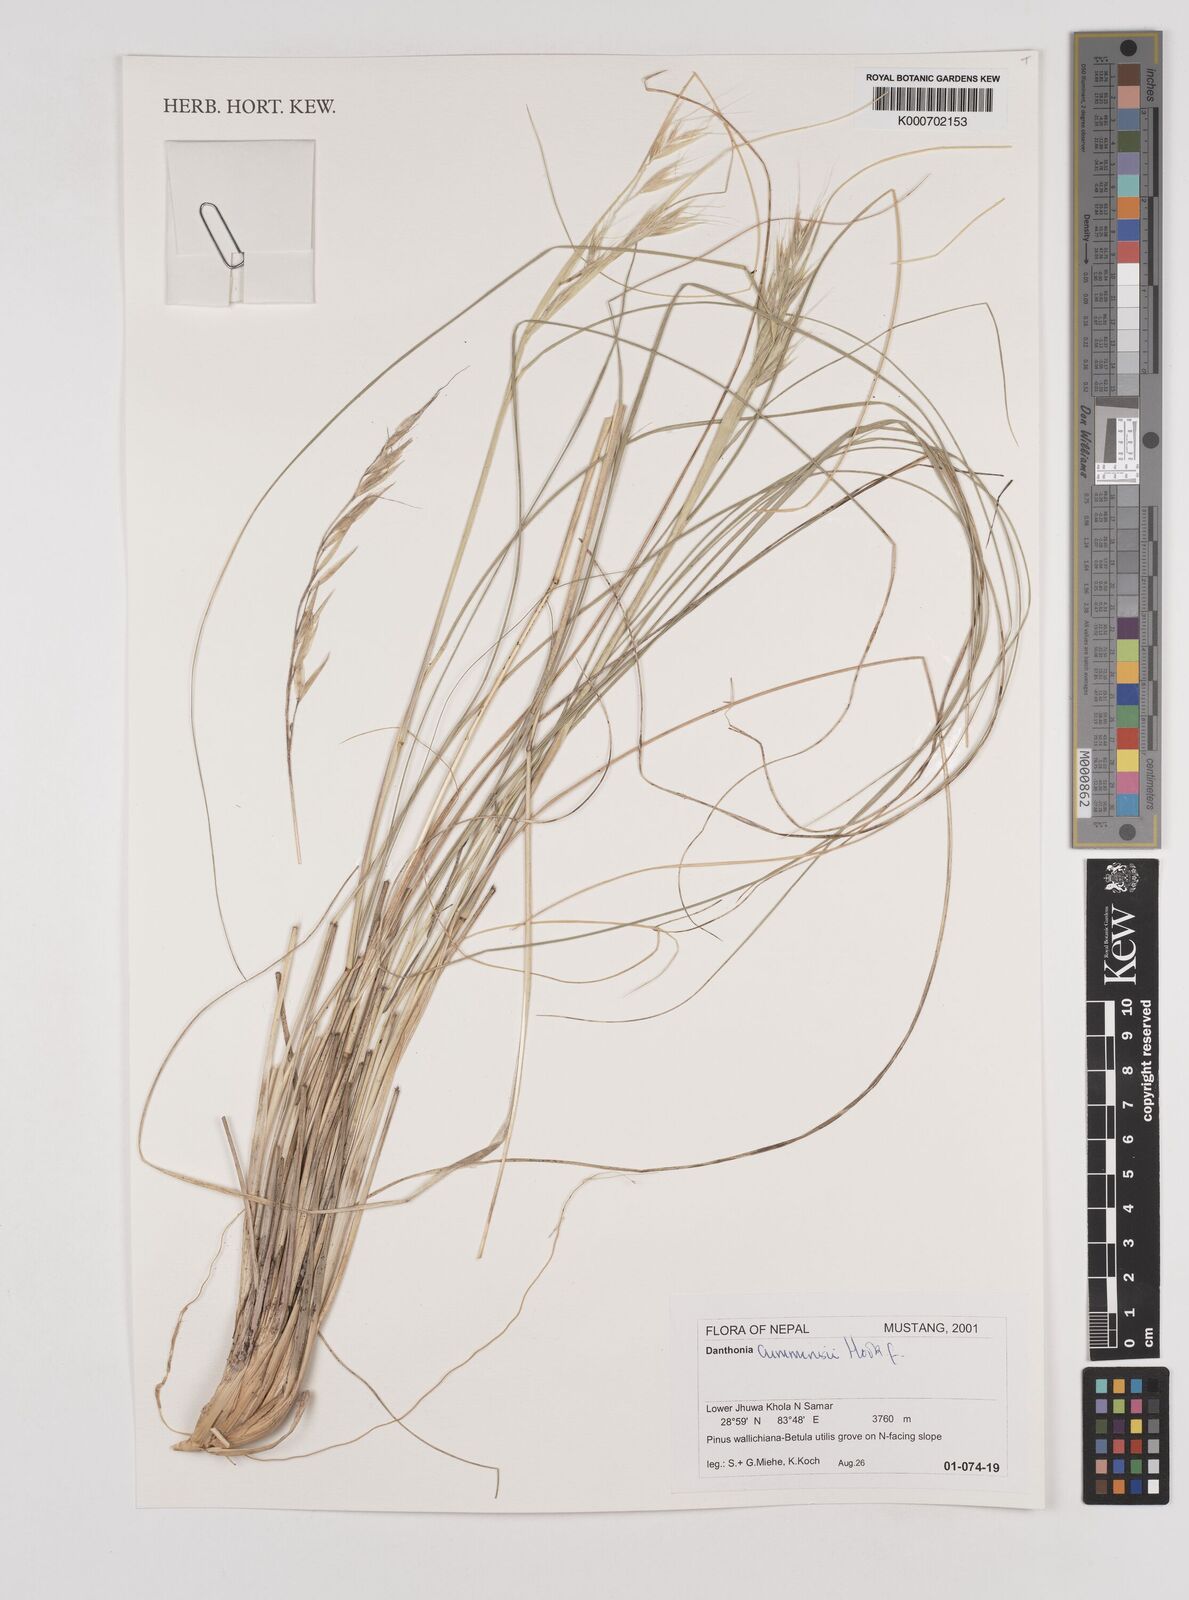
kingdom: Plantae
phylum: Tracheophyta
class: Liliopsida
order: Poales
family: Poaceae
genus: Tenaxia
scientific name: Tenaxia cumminsii
